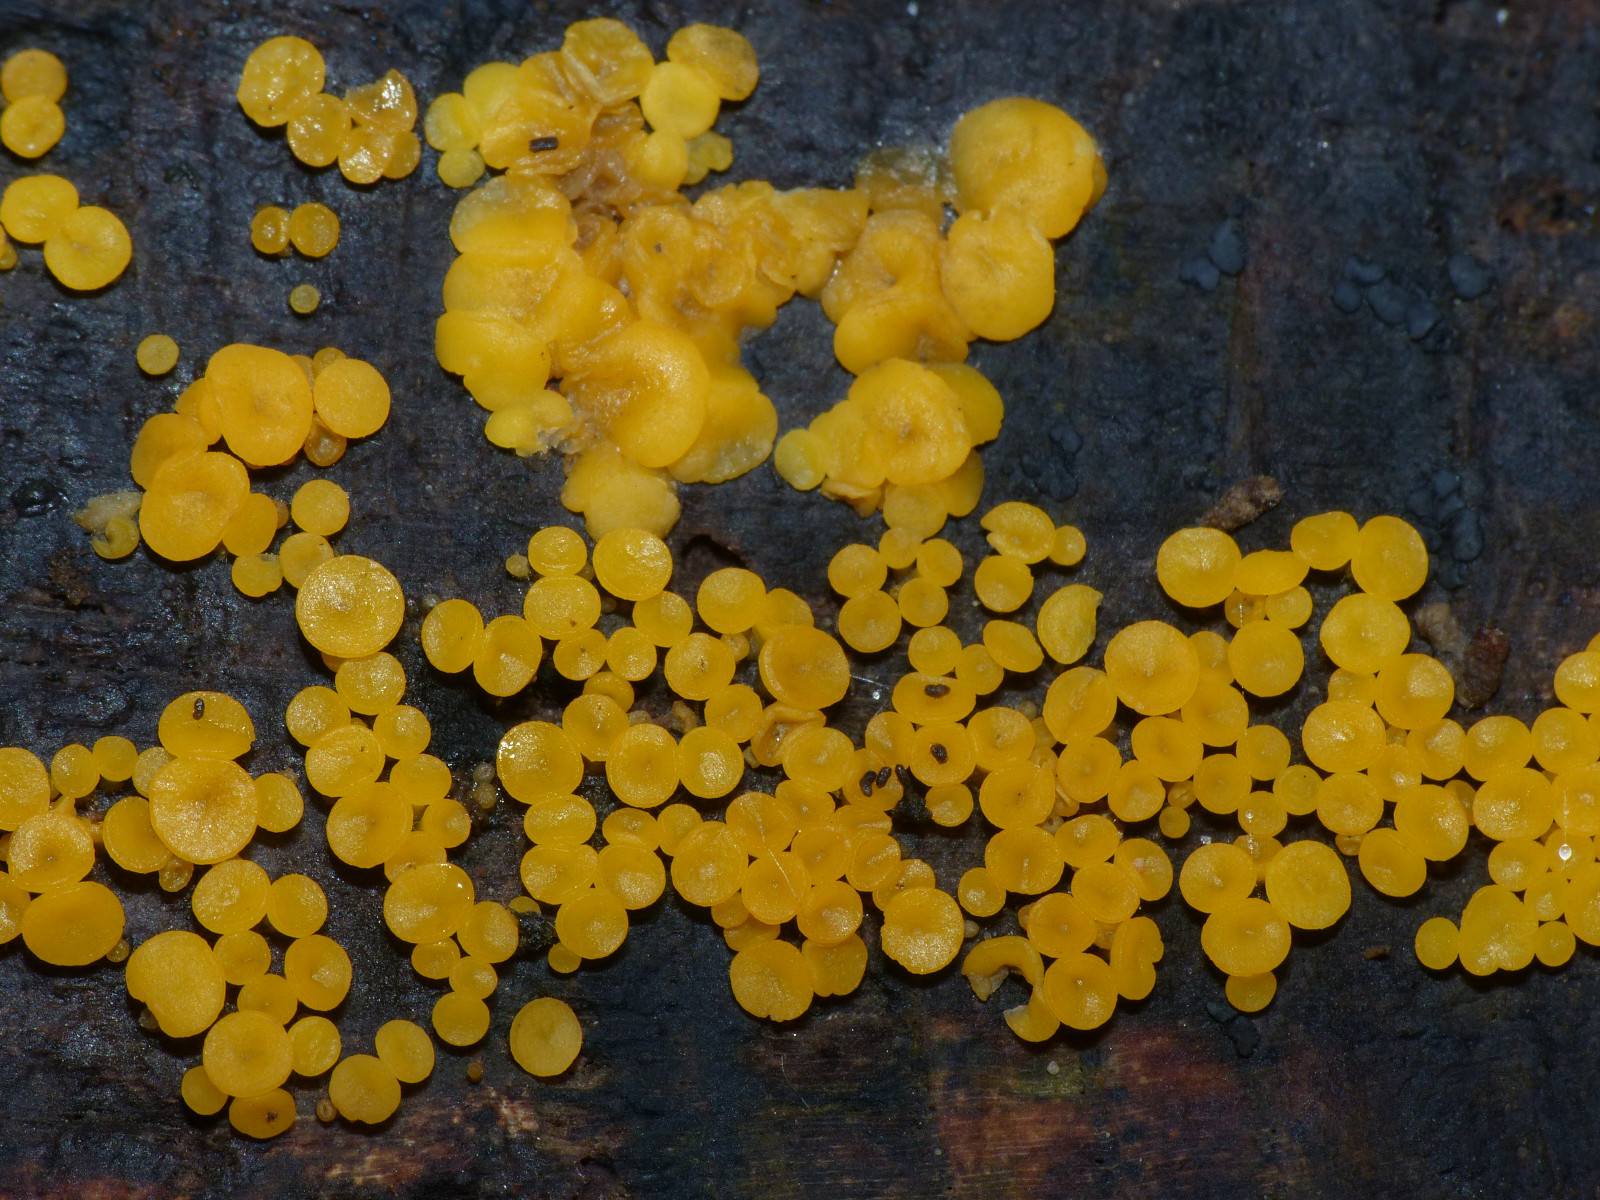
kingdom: Fungi
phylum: Ascomycota
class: Leotiomycetes
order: Helotiales
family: Pezizellaceae
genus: Calycina
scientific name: Calycina citrina
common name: almindelig gulskive
